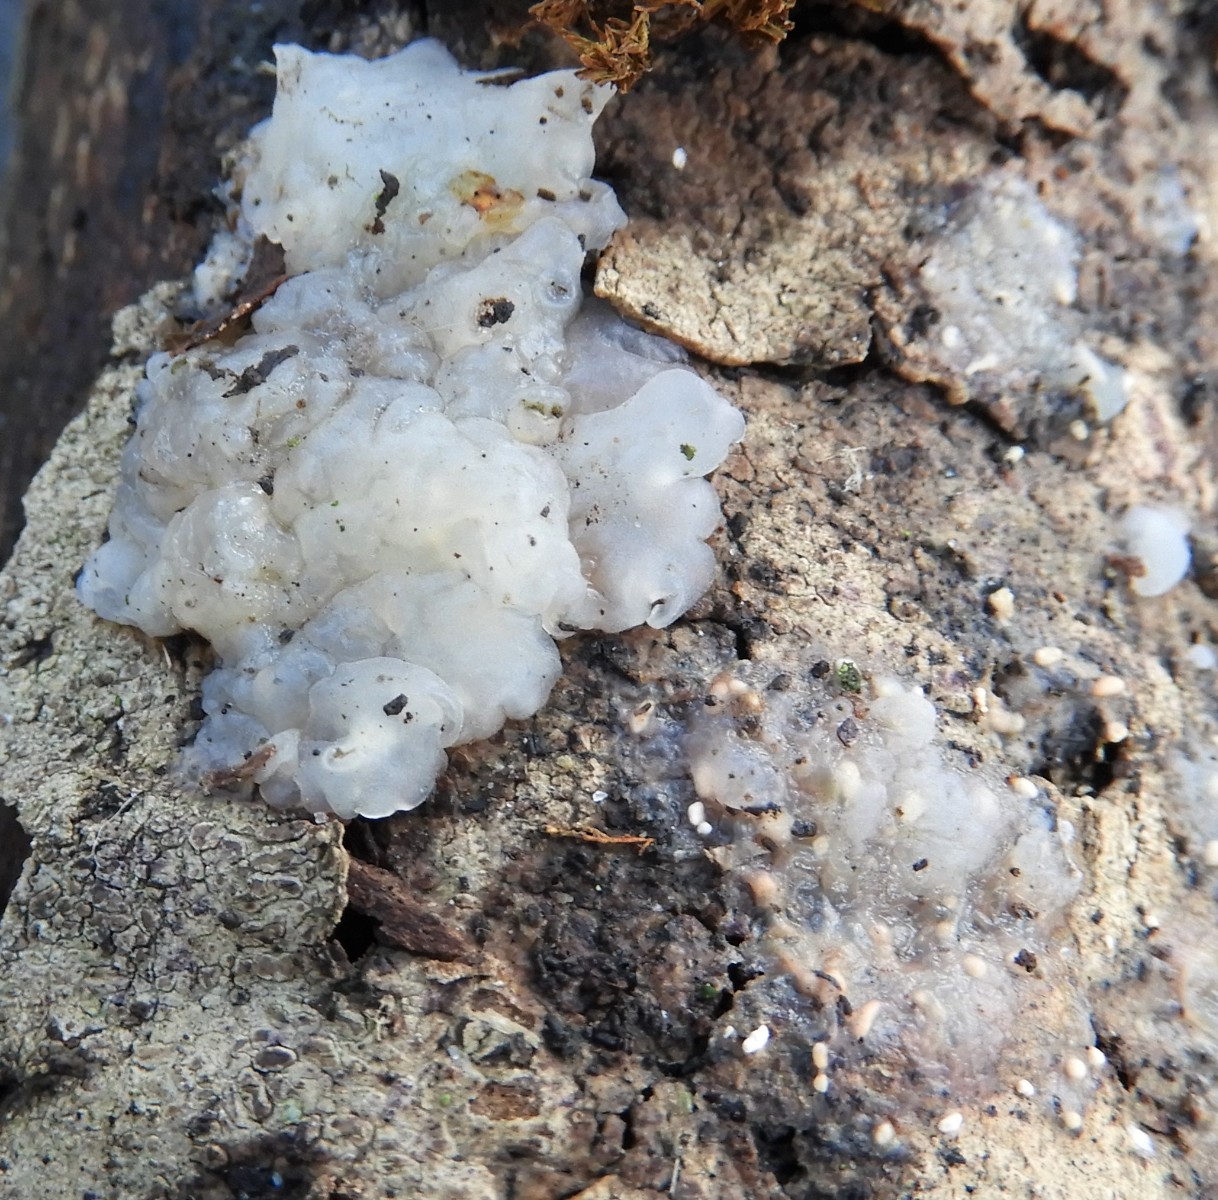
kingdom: Fungi
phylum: Basidiomycota
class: Agaricomycetes
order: Auriculariales
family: Hyaloriaceae
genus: Myxarium
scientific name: Myxarium nucleatum
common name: klar bævretop
